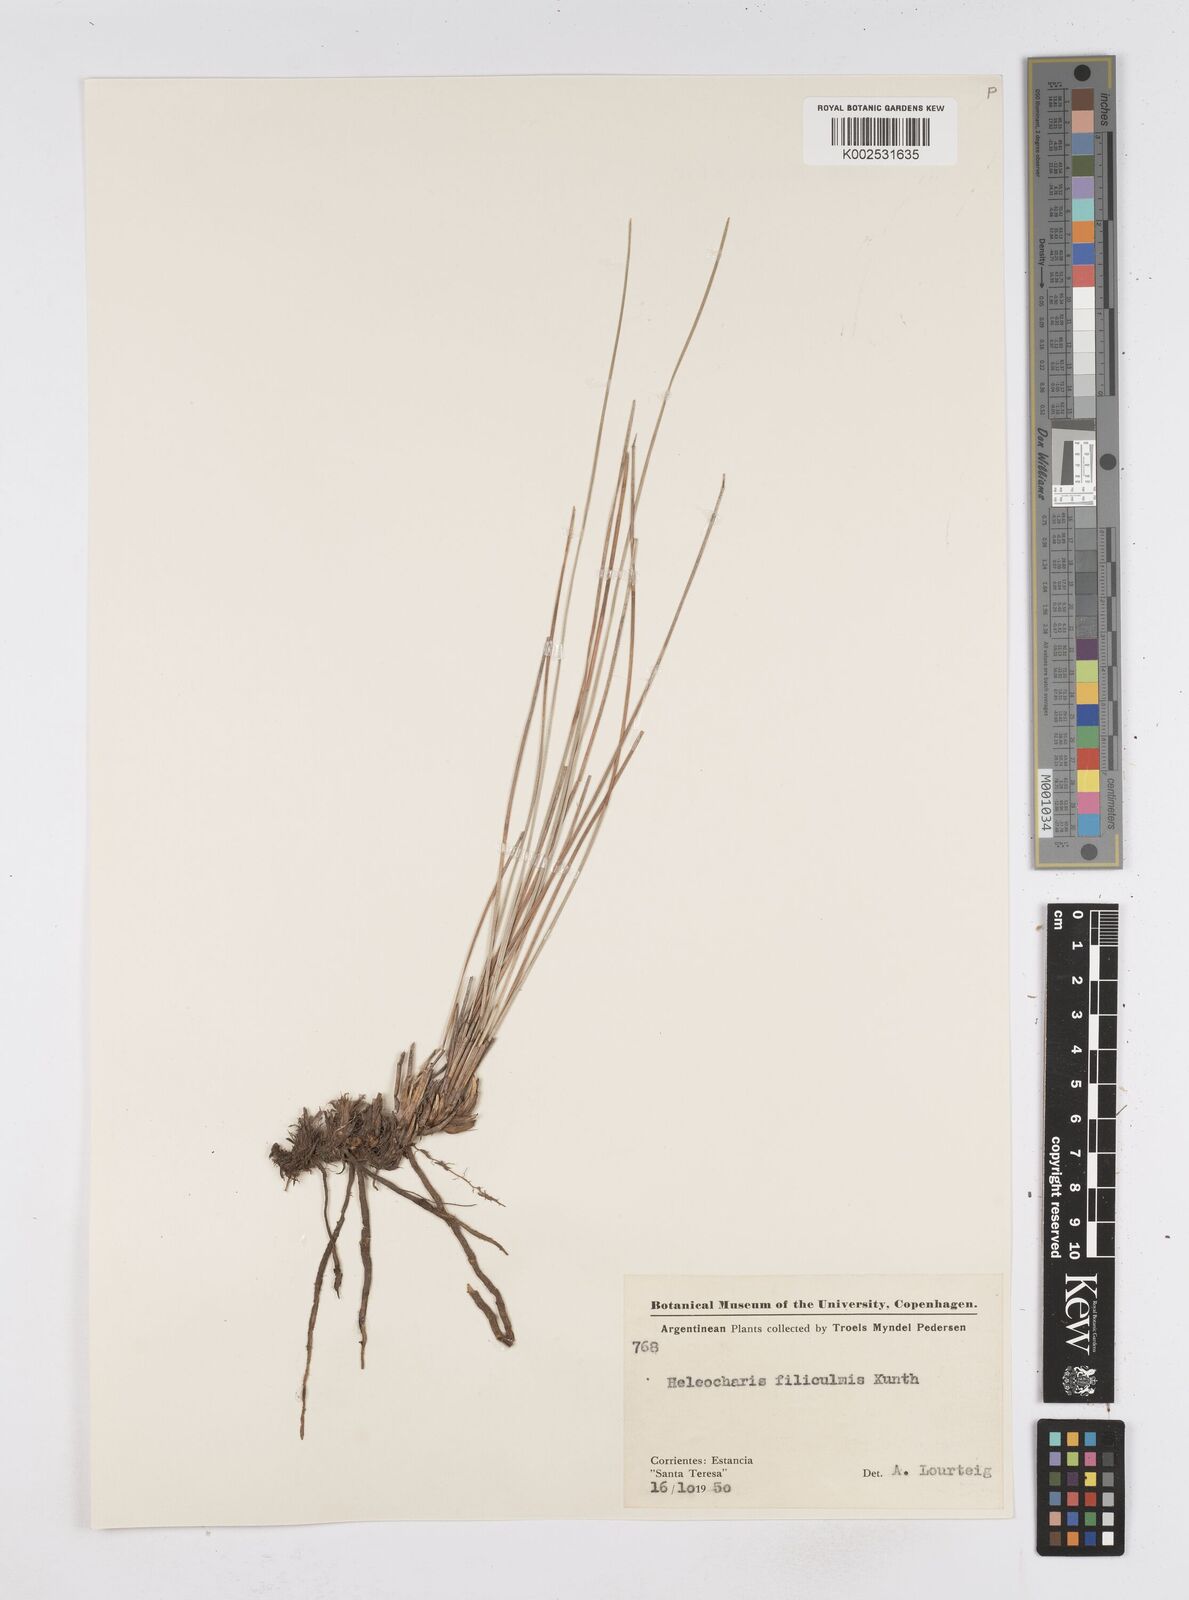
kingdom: Plantae
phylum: Tracheophyta
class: Liliopsida
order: Poales
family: Cyperaceae
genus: Eleocharis
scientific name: Eleocharis filiculmis
